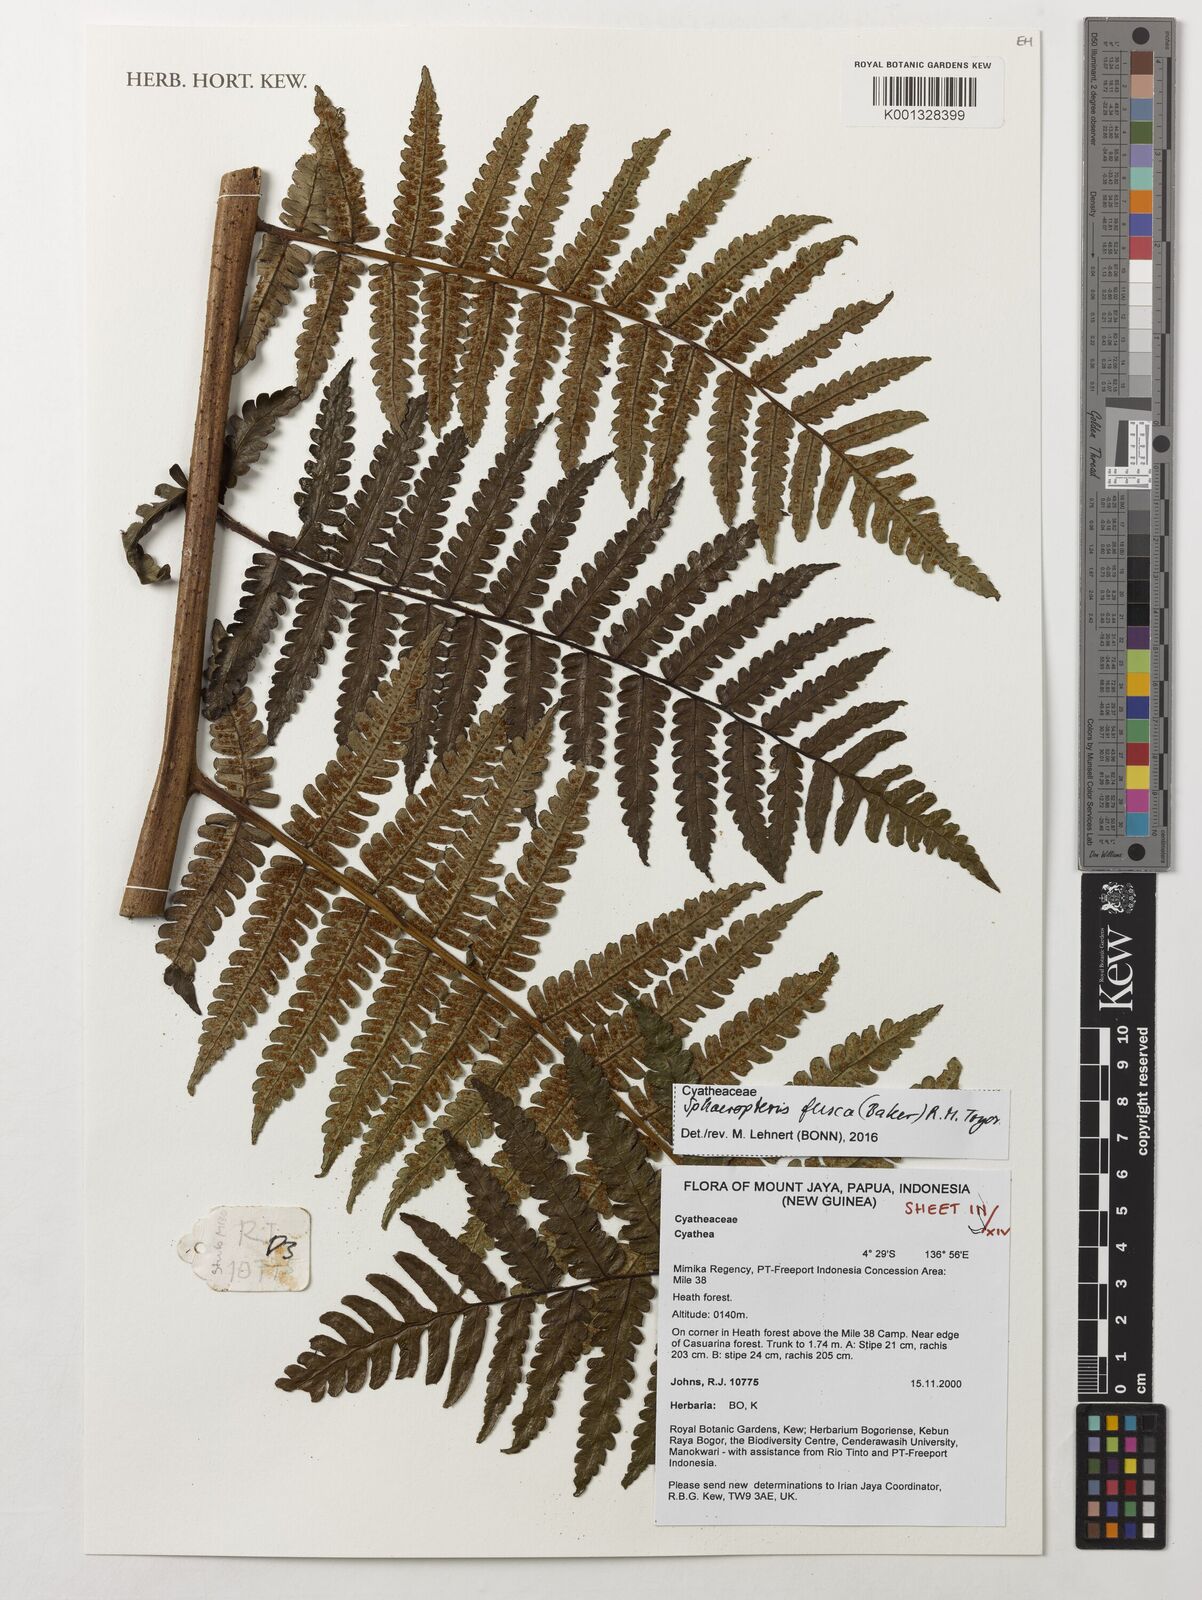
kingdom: Plantae
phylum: Tracheophyta
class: Polypodiopsida
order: Cyatheales
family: Cyatheaceae
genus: Sphaeropteris
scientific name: Sphaeropteris fusca
